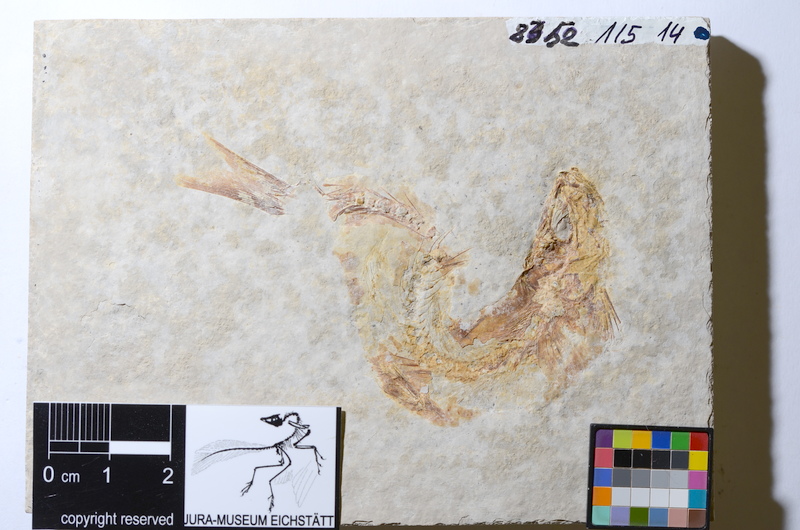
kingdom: Animalia
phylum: Chordata
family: Ascalaboidae
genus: Tharsis
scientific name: Tharsis dubius
